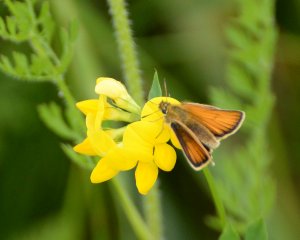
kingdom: Animalia
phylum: Arthropoda
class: Insecta
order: Lepidoptera
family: Hesperiidae
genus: Thymelicus
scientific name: Thymelicus lineola
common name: European Skipper
